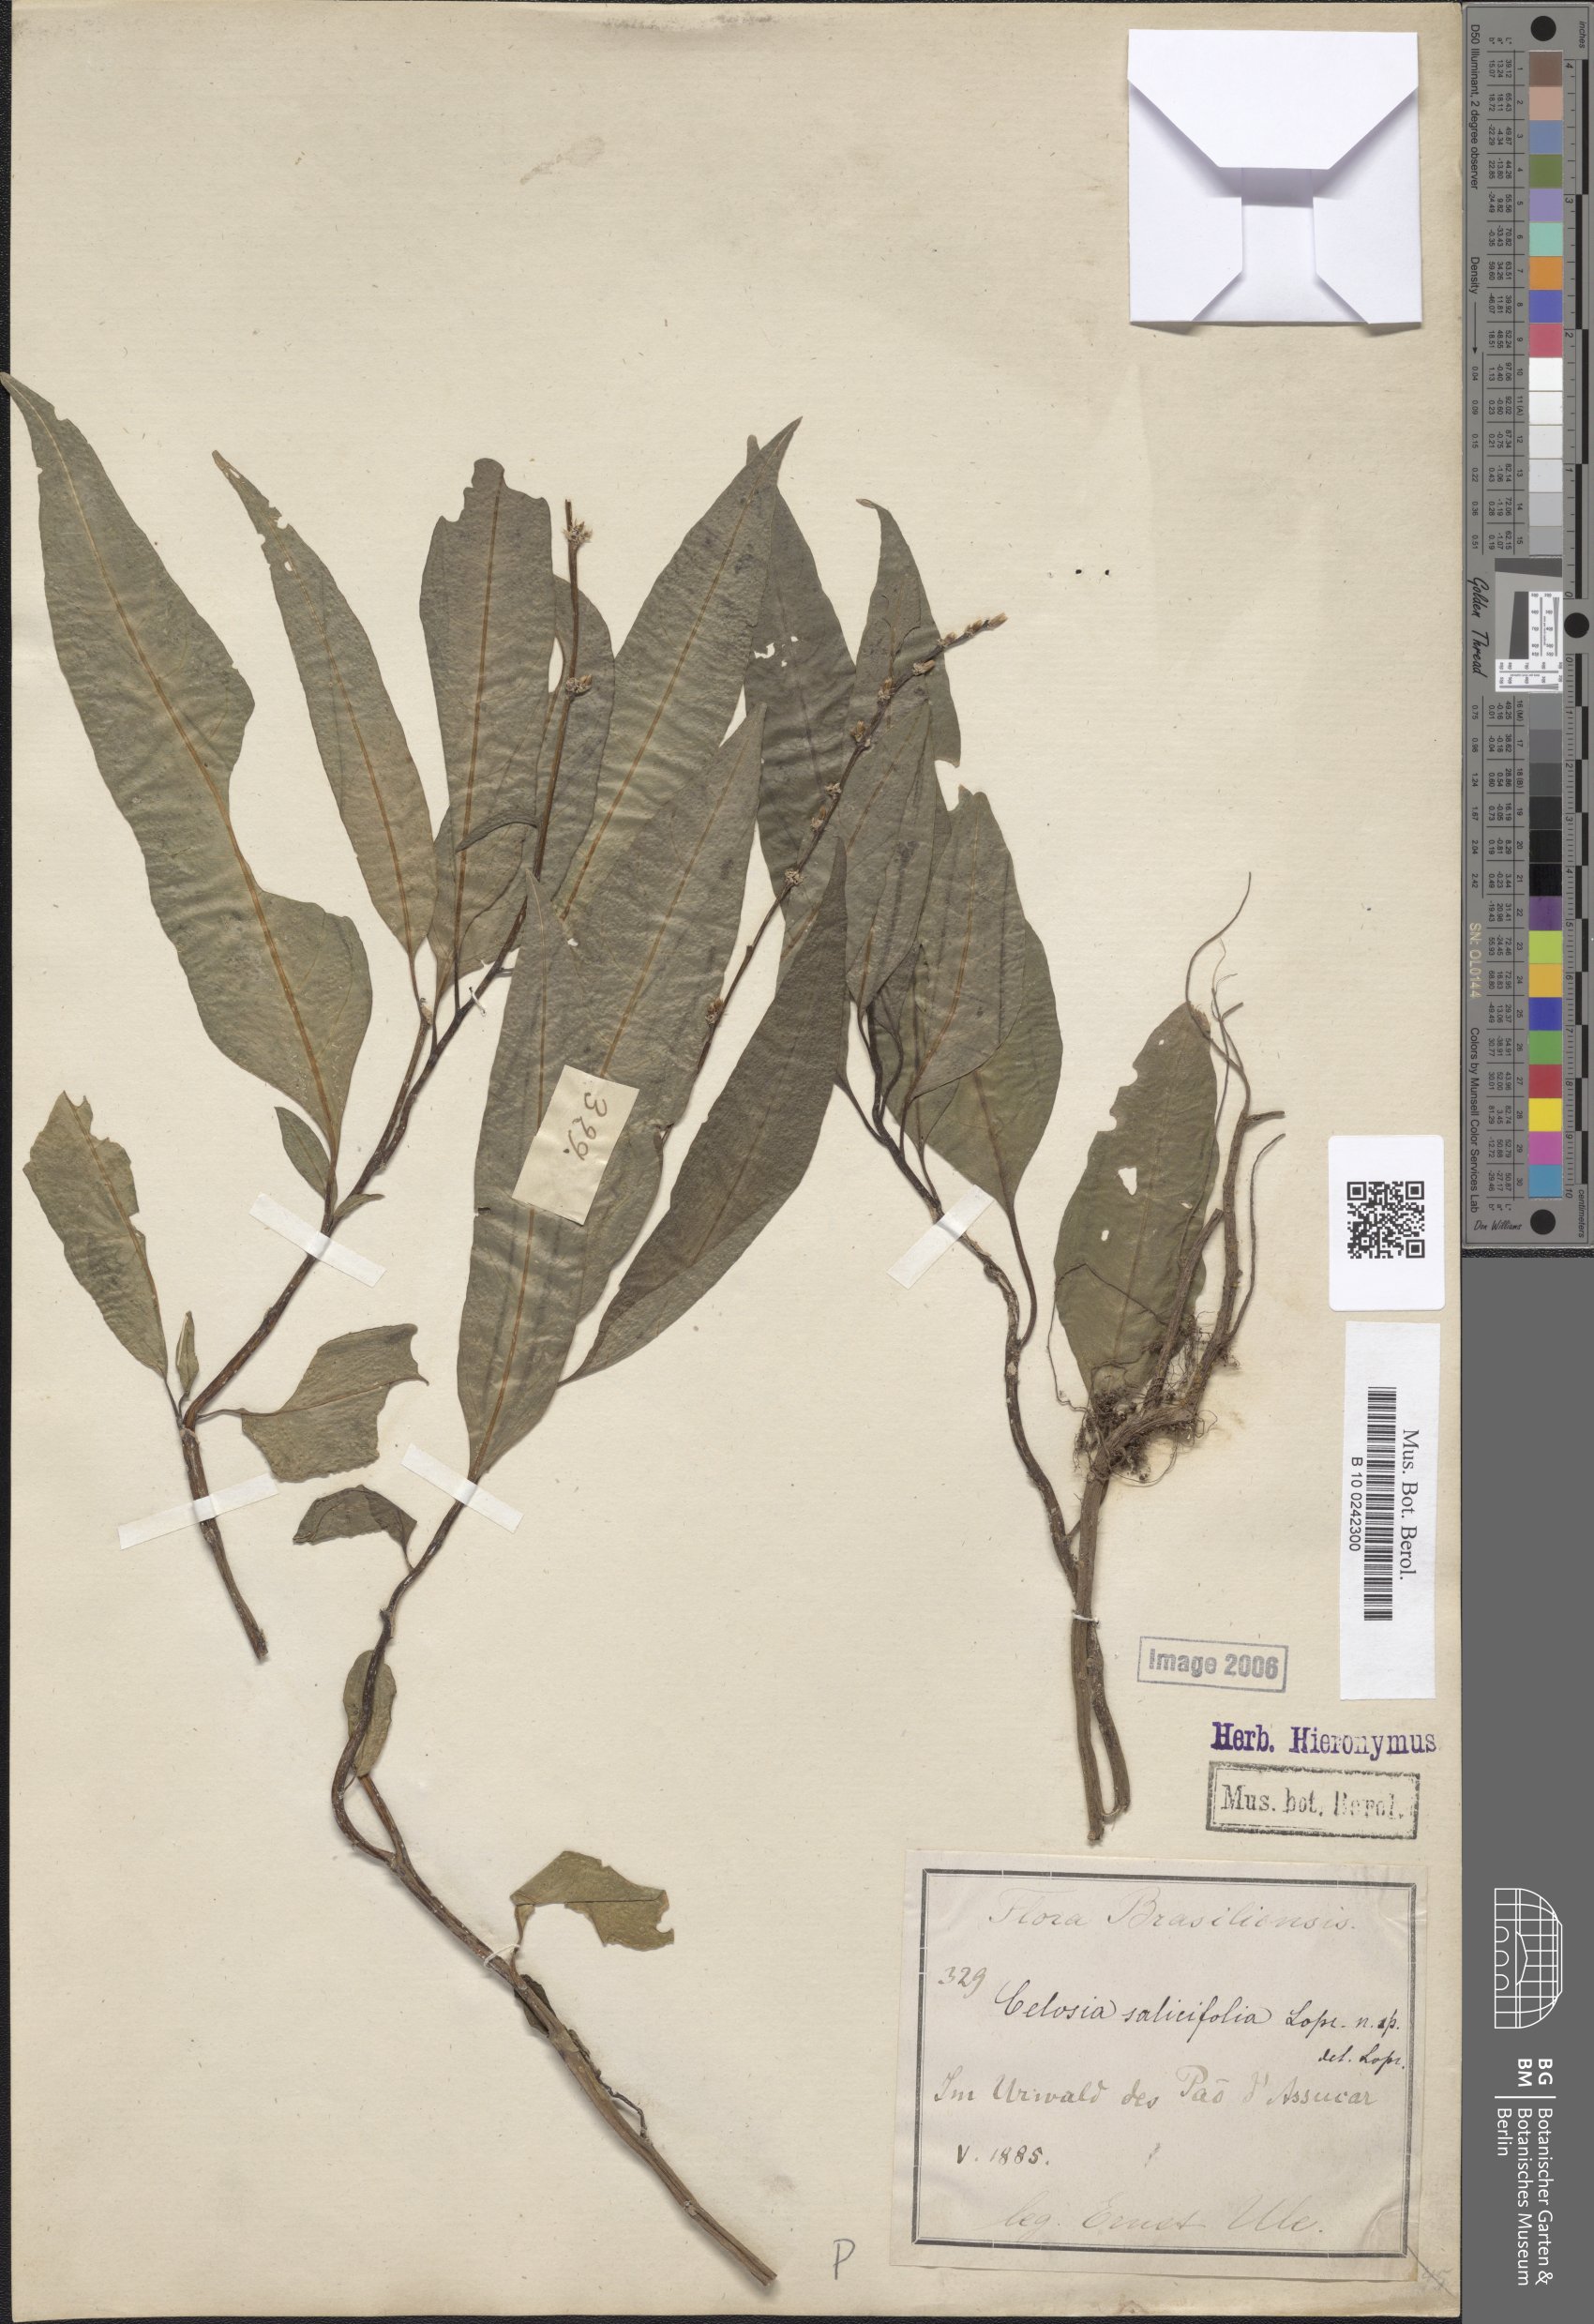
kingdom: Plantae
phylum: Tracheophyta
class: Magnoliopsida
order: Caryophyllales
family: Amaranthaceae
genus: Celosia
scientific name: Celosia salicifolia
